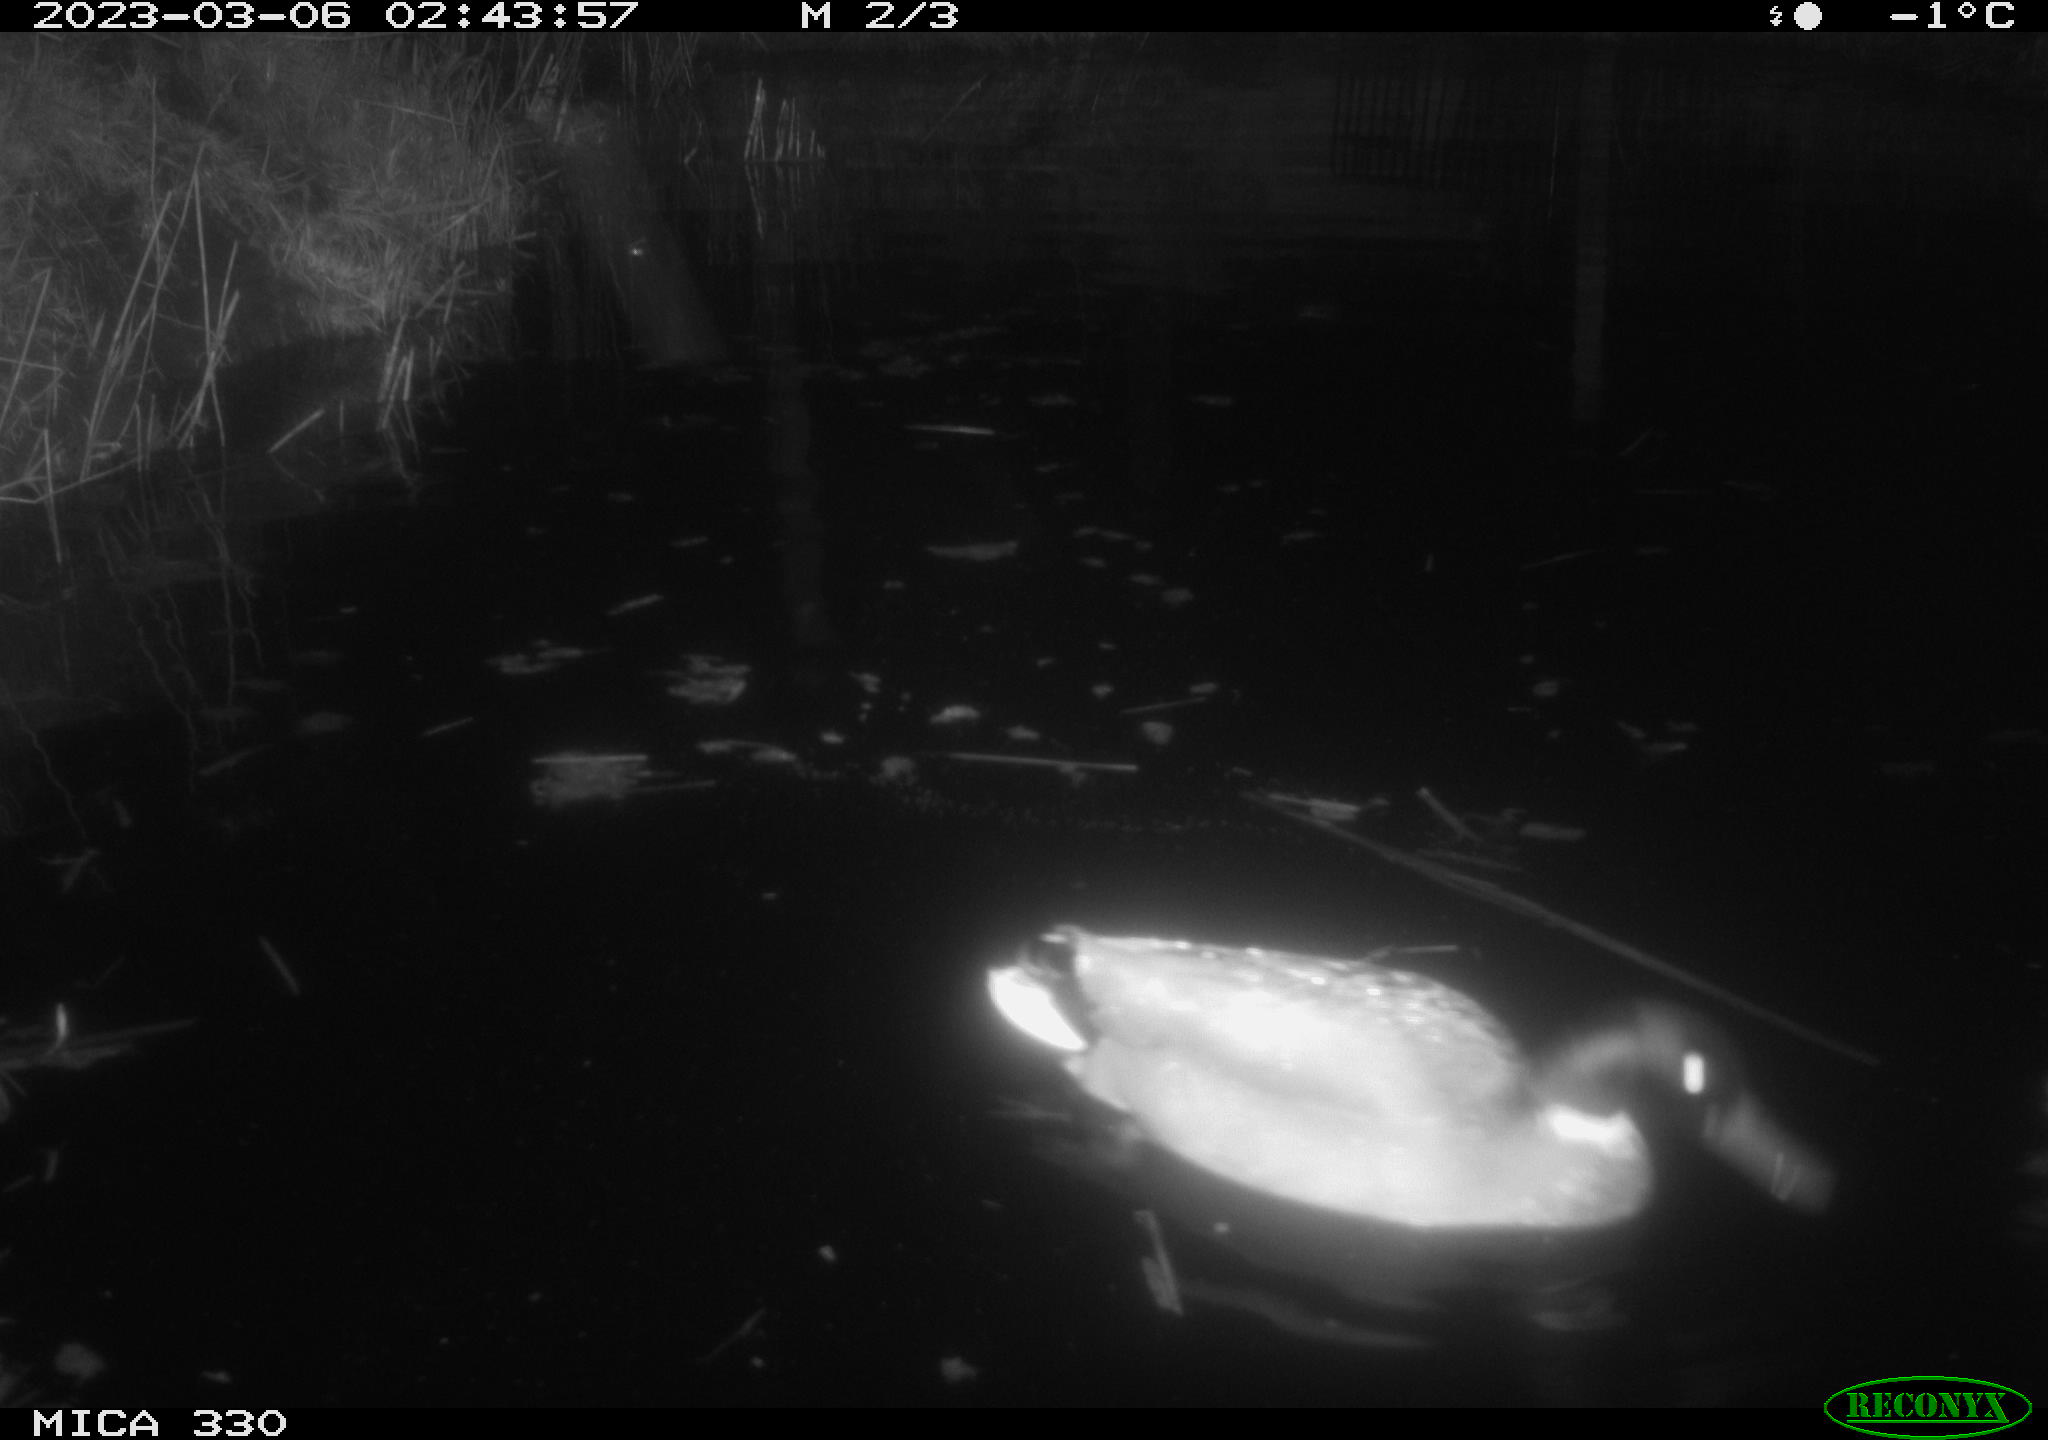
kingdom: Animalia
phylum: Chordata
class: Aves
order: Anseriformes
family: Anatidae
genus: Anas
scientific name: Anas
